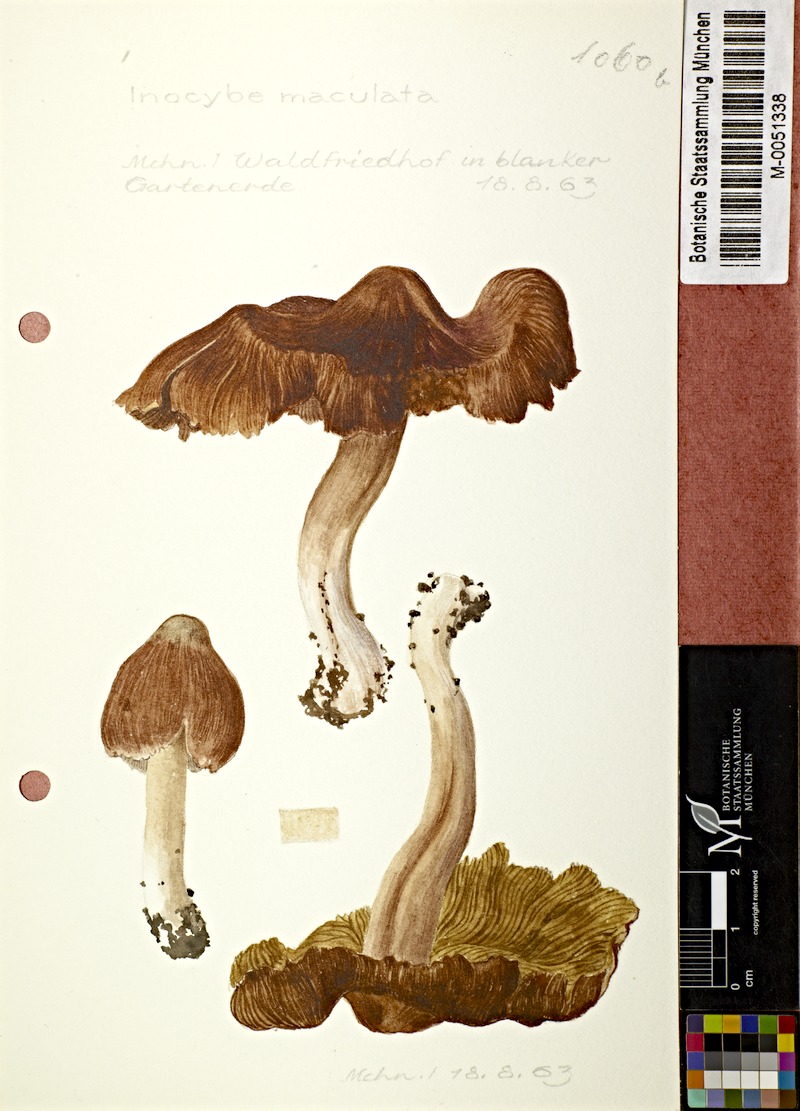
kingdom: Fungi
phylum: Basidiomycota
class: Agaricomycetes
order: Agaricales
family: Inocybaceae
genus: Inosperma
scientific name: Inosperma maculatum
